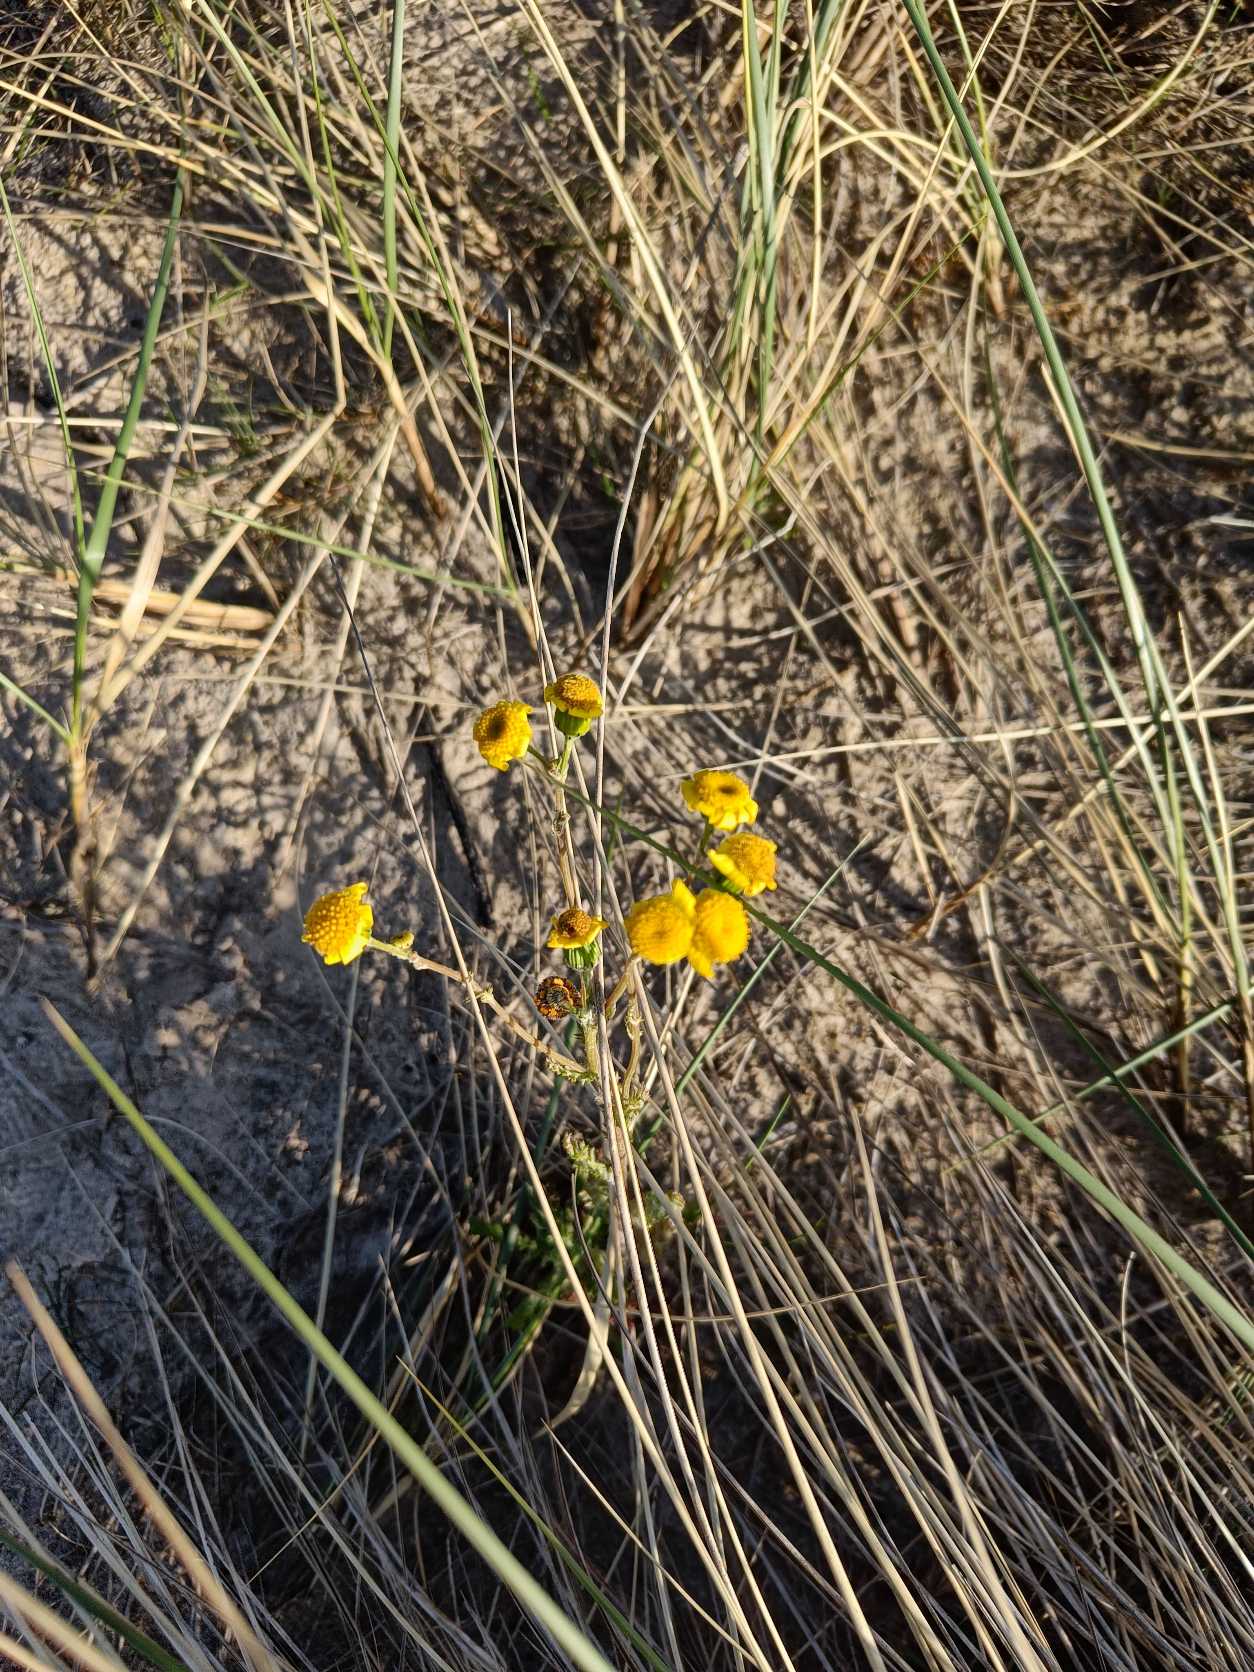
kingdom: Plantae
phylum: Tracheophyta
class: Magnoliopsida
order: Asterales
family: Asteraceae
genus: Senecio
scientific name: Senecio leucanthemifolius
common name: Vår-brandbæger
